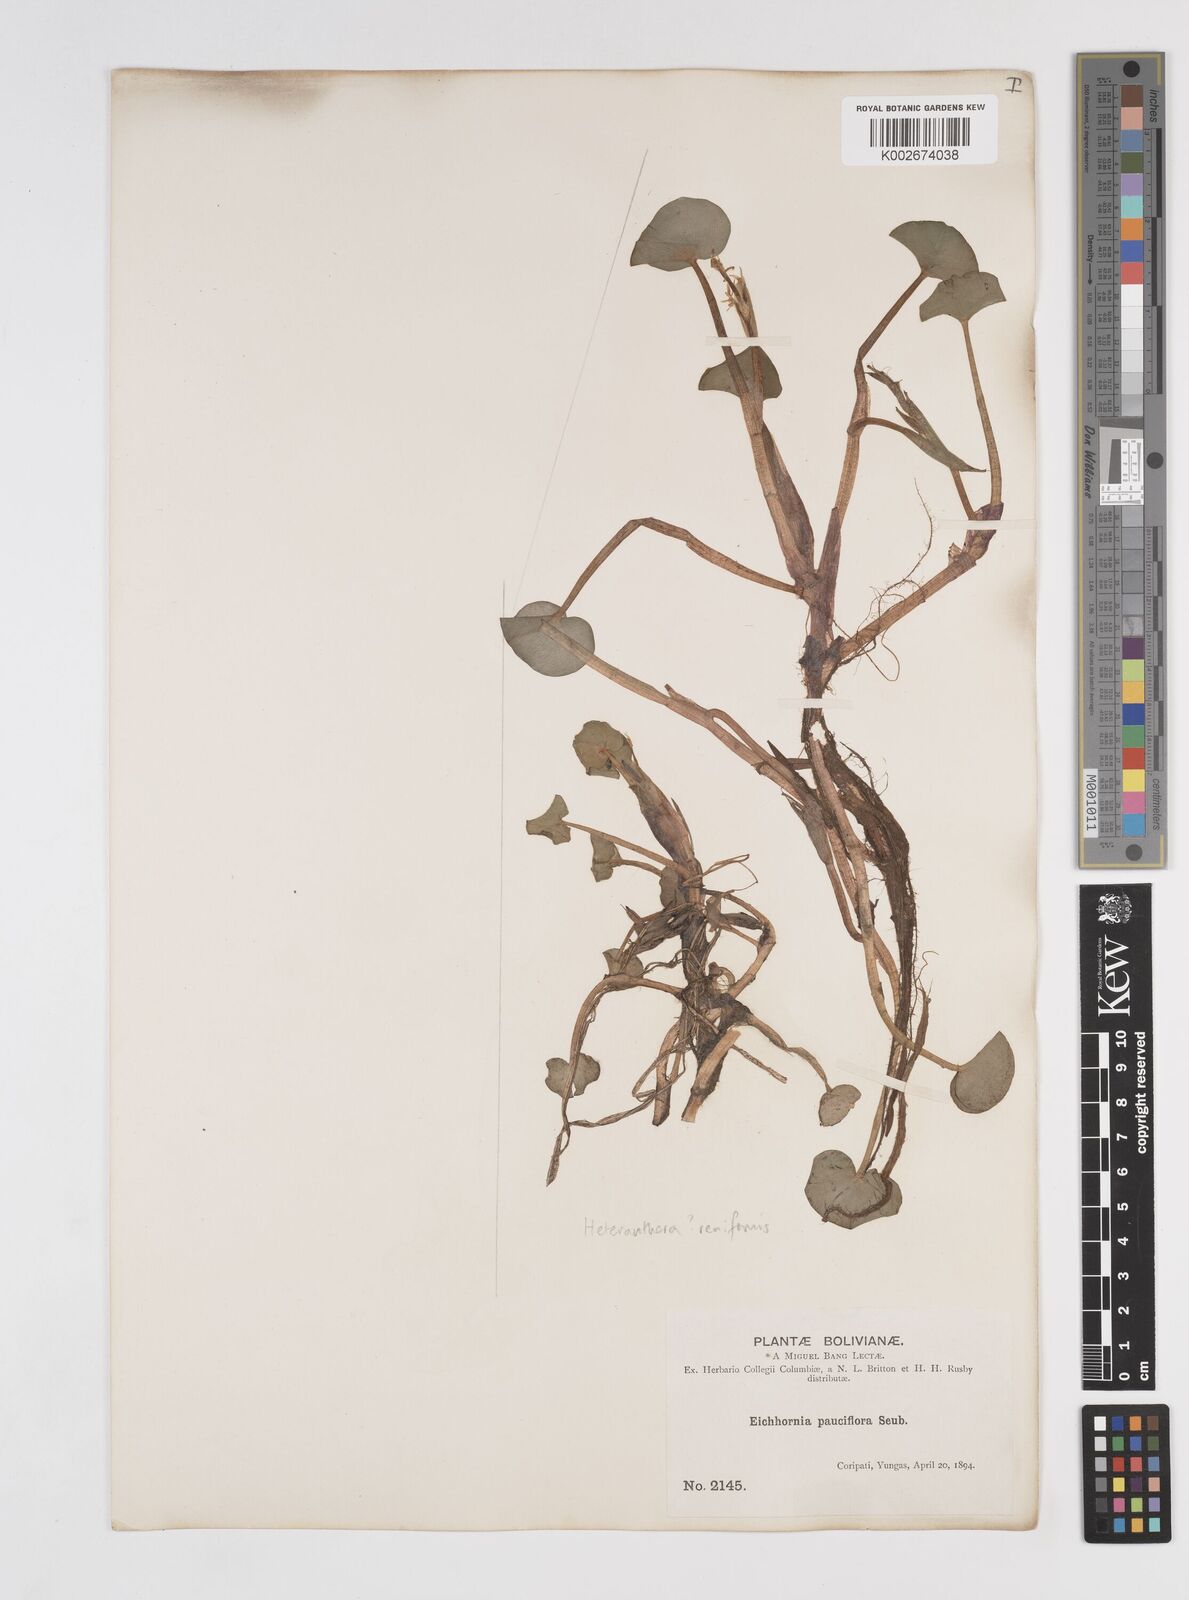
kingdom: Plantae
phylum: Tracheophyta
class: Liliopsida
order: Commelinales
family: Pontederiaceae
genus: Pontederia
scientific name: Pontederia diversifolia
